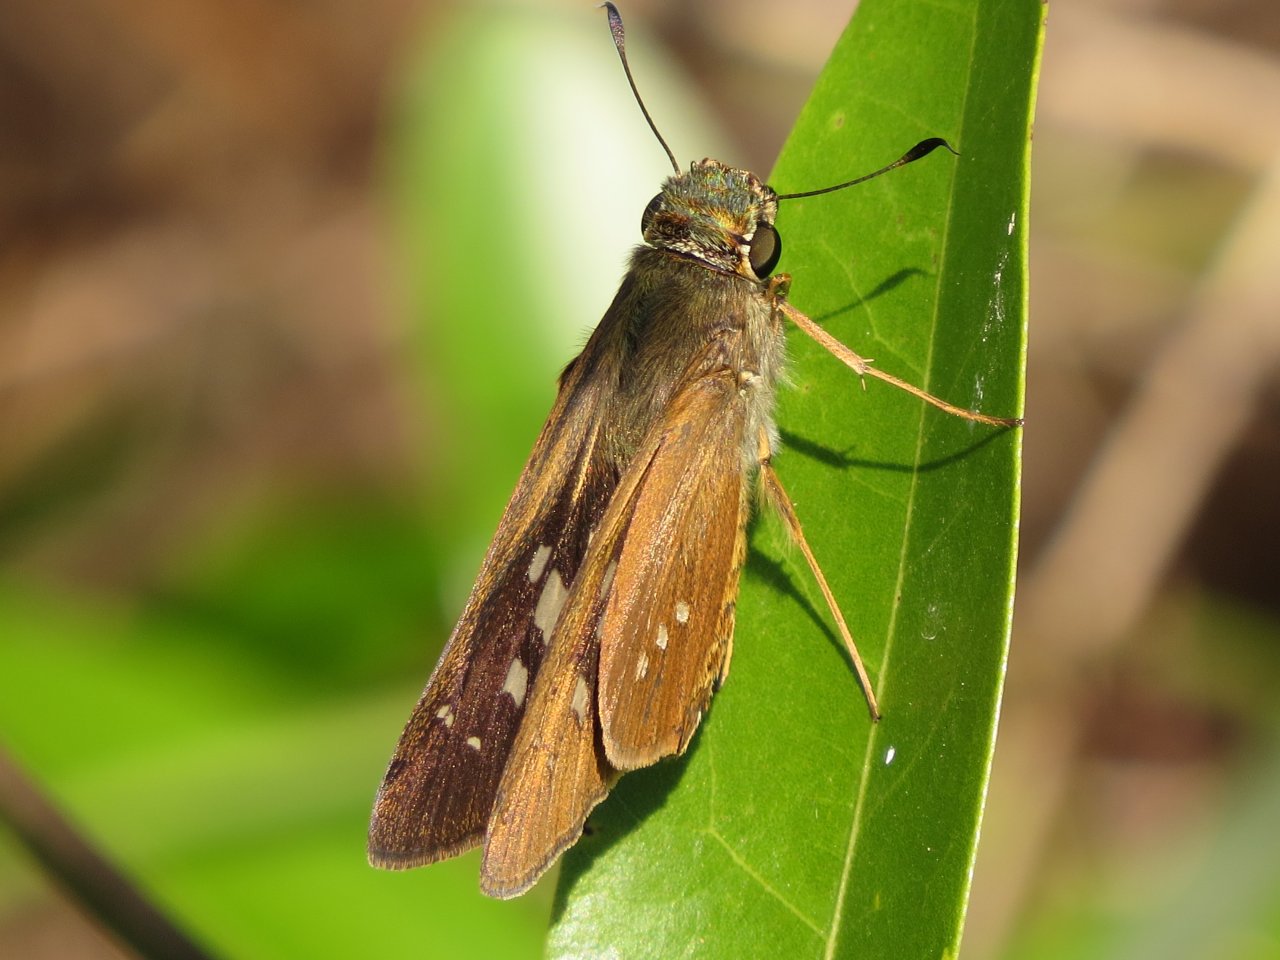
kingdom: Animalia
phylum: Arthropoda
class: Insecta
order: Lepidoptera
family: Hesperiidae
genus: Panoquina
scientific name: Panoquina ocola
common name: Ocola Skipper
